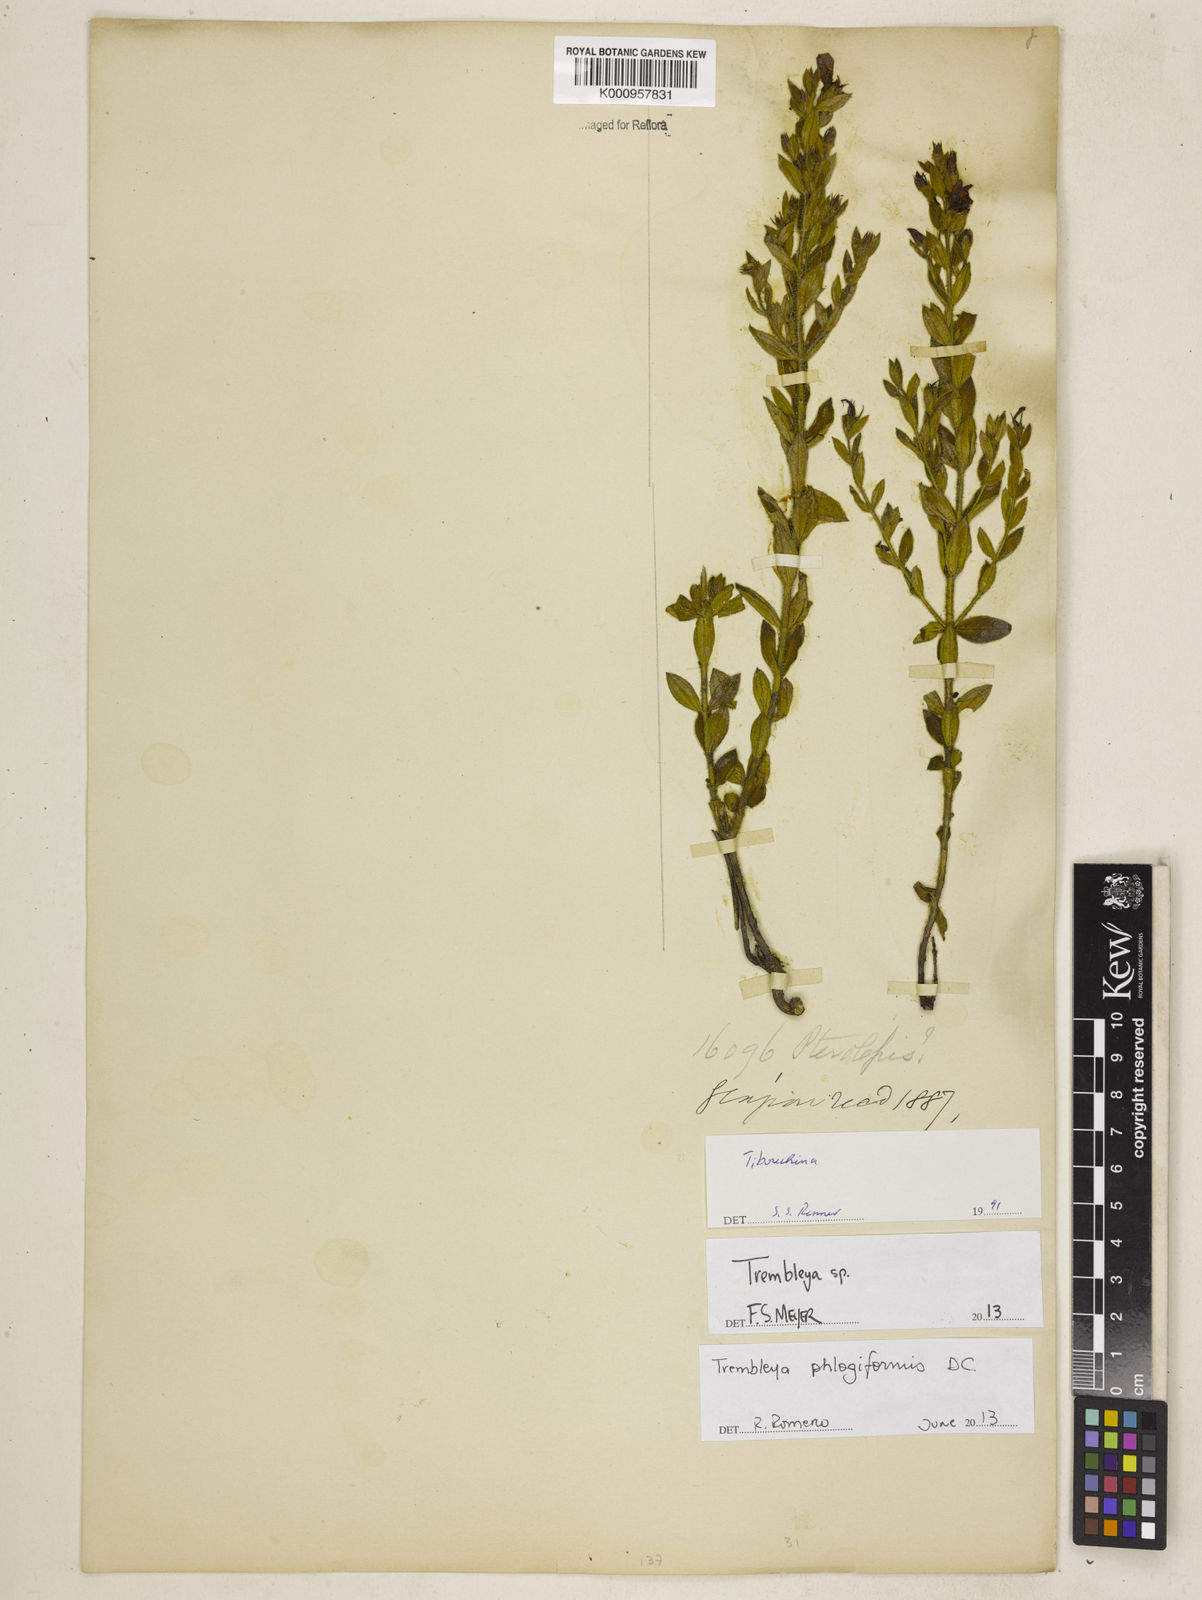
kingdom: Plantae
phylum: Tracheophyta
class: Magnoliopsida
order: Myrtales
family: Melastomataceae
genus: Microlicia
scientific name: Microlicia phlogiformis
